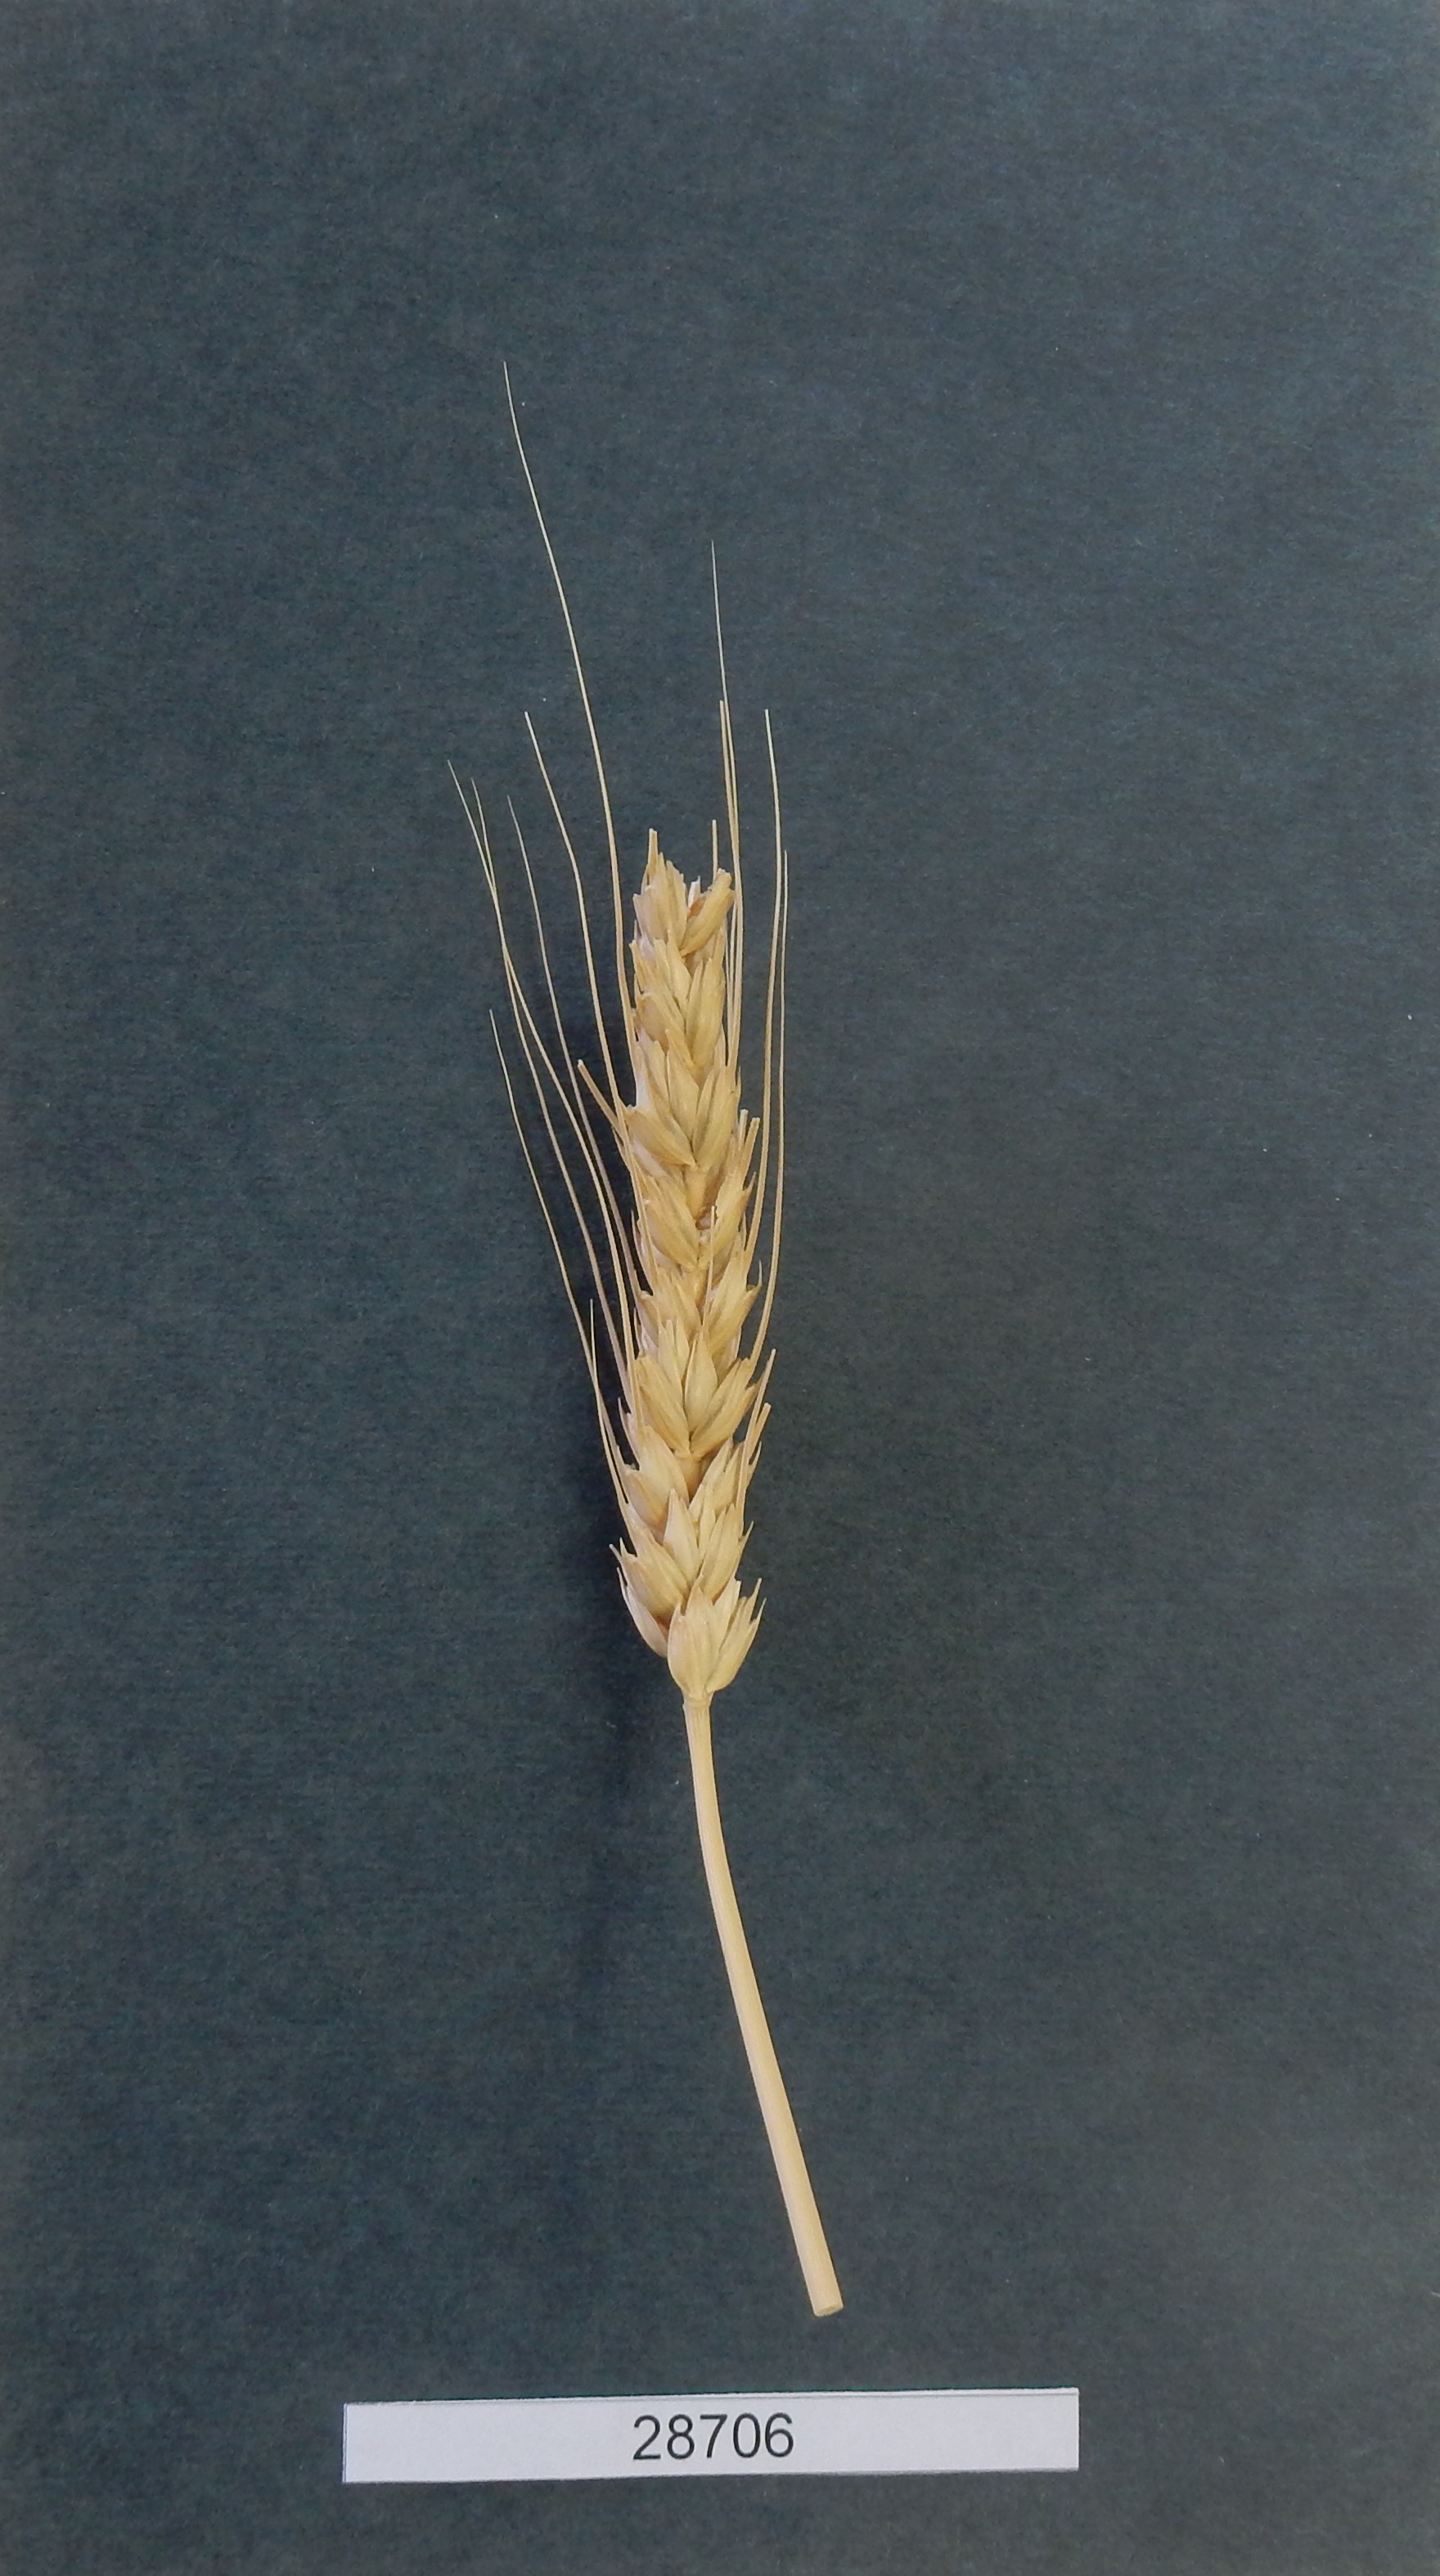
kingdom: Plantae
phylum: Tracheophyta
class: Liliopsida
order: Poales
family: Poaceae
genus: Triticum
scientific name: Triticum aestivum
